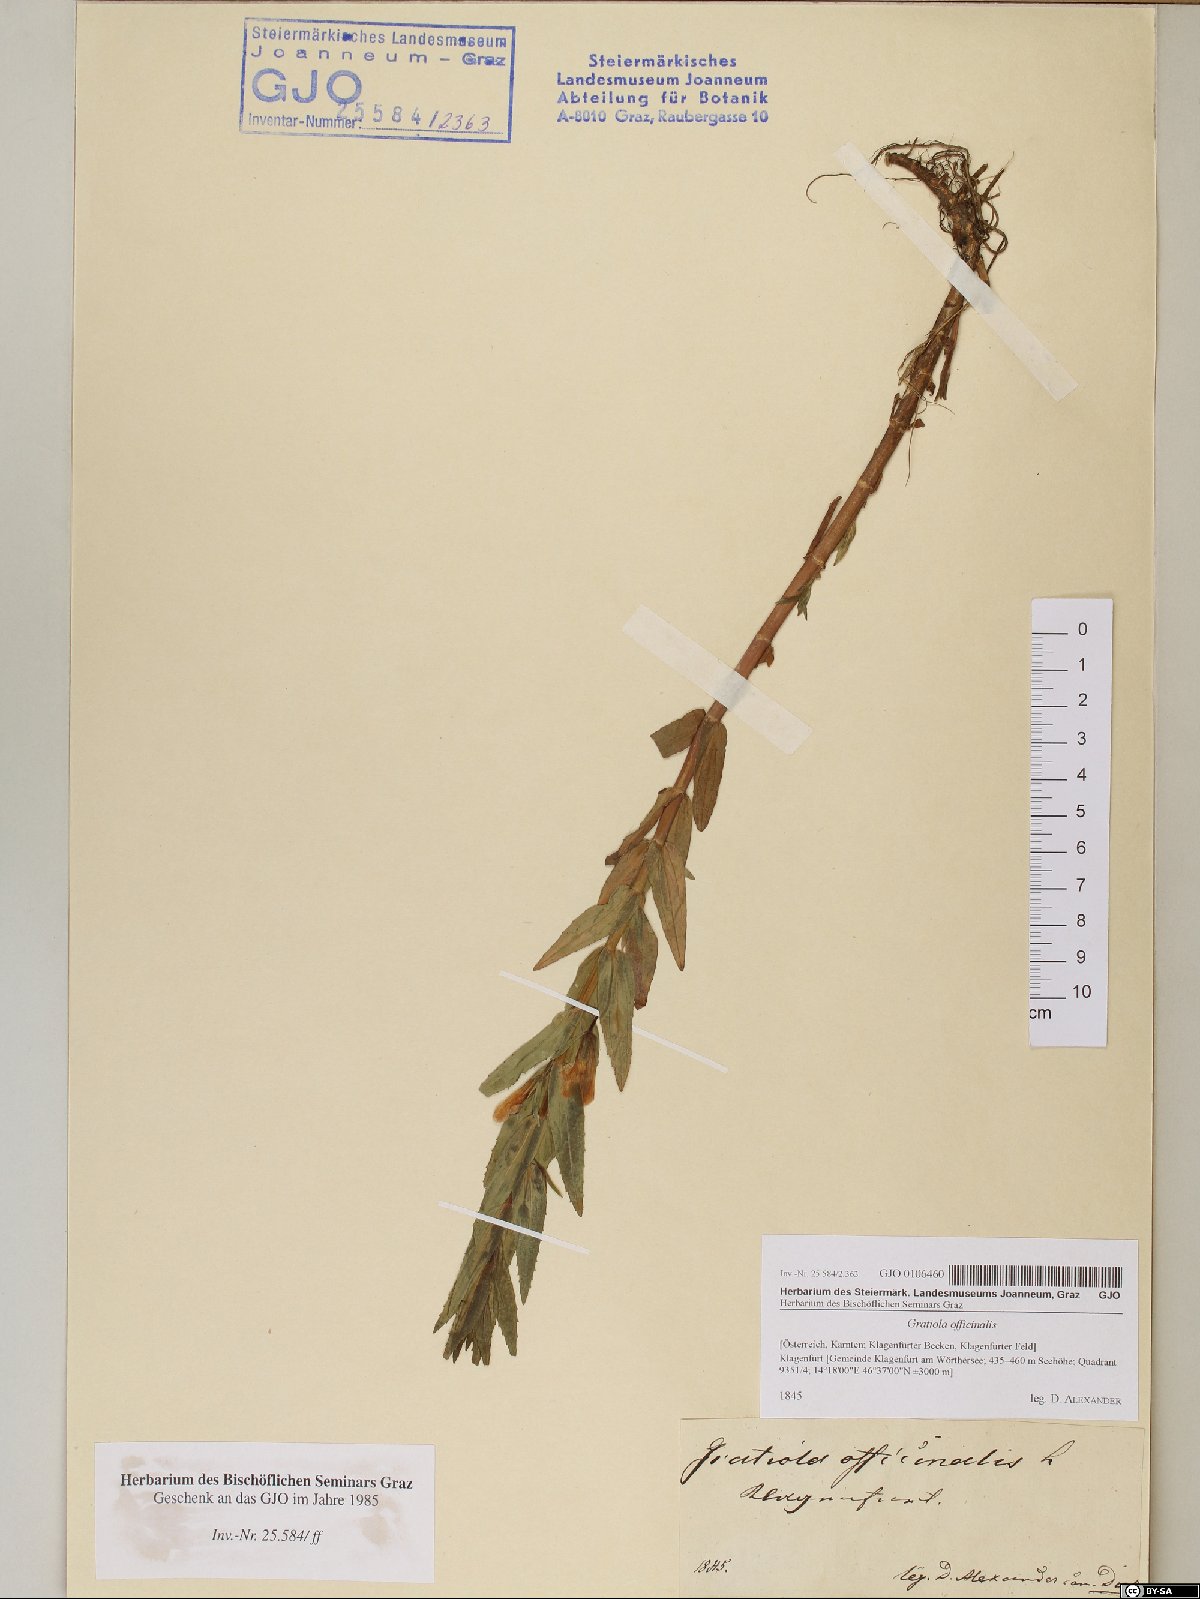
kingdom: Plantae
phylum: Tracheophyta
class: Magnoliopsida
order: Lamiales
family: Plantaginaceae
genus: Gratiola
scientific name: Gratiola officinalis
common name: Gratiola
